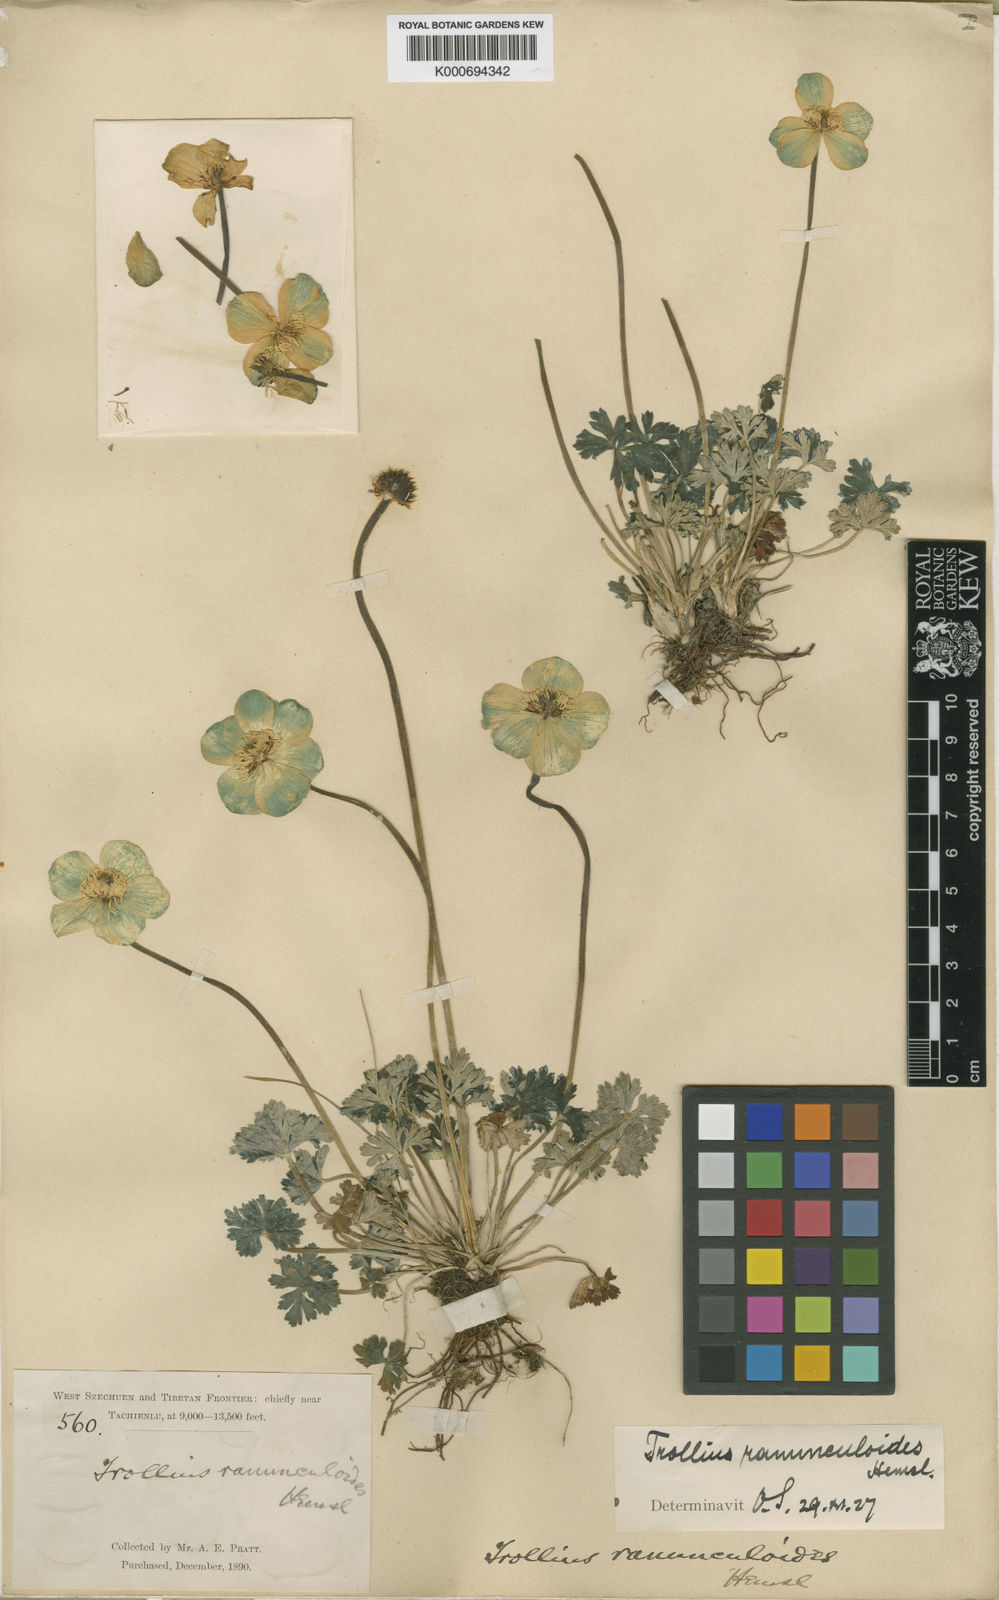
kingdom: Plantae
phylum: Tracheophyta
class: Magnoliopsida
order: Ranunculales
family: Ranunculaceae
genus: Trollius
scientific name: Trollius yunnanensis
